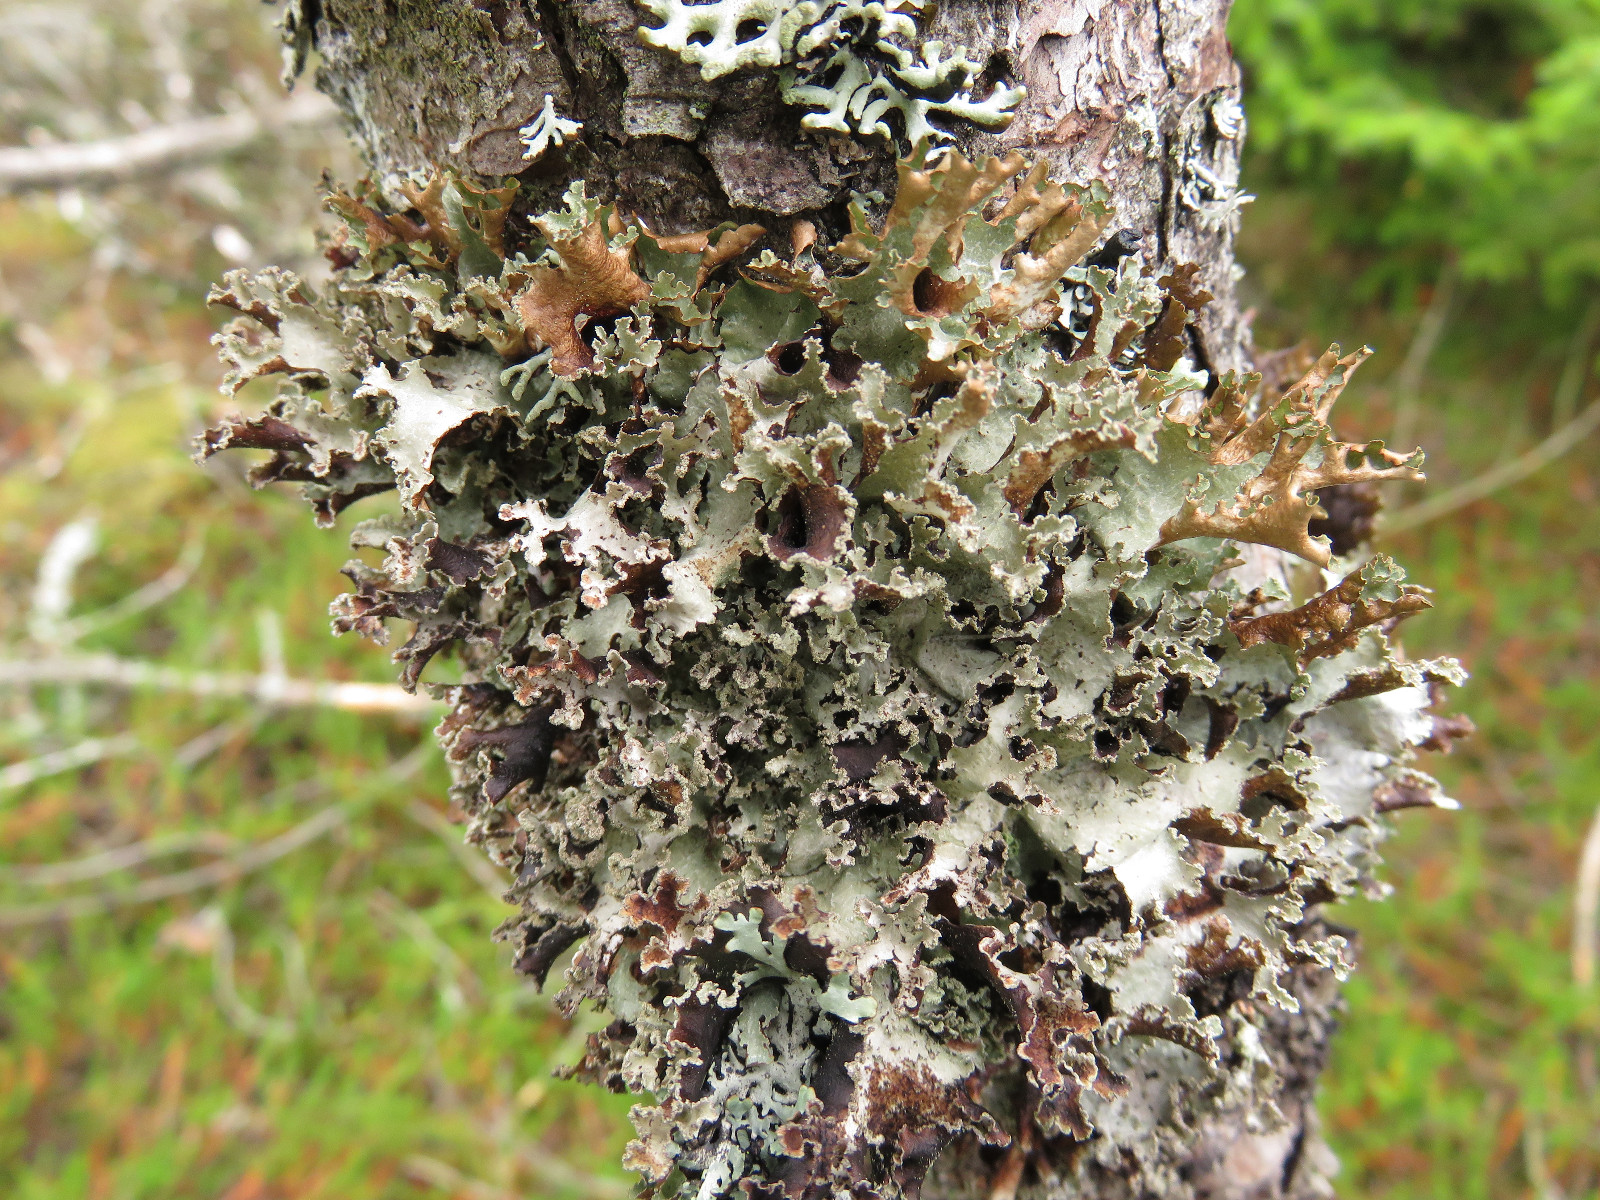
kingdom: Fungi
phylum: Ascomycota
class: Lecanoromycetes
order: Lecanorales
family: Parmeliaceae
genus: Platismatia
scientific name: Platismatia glauca
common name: blågrå papirlav
